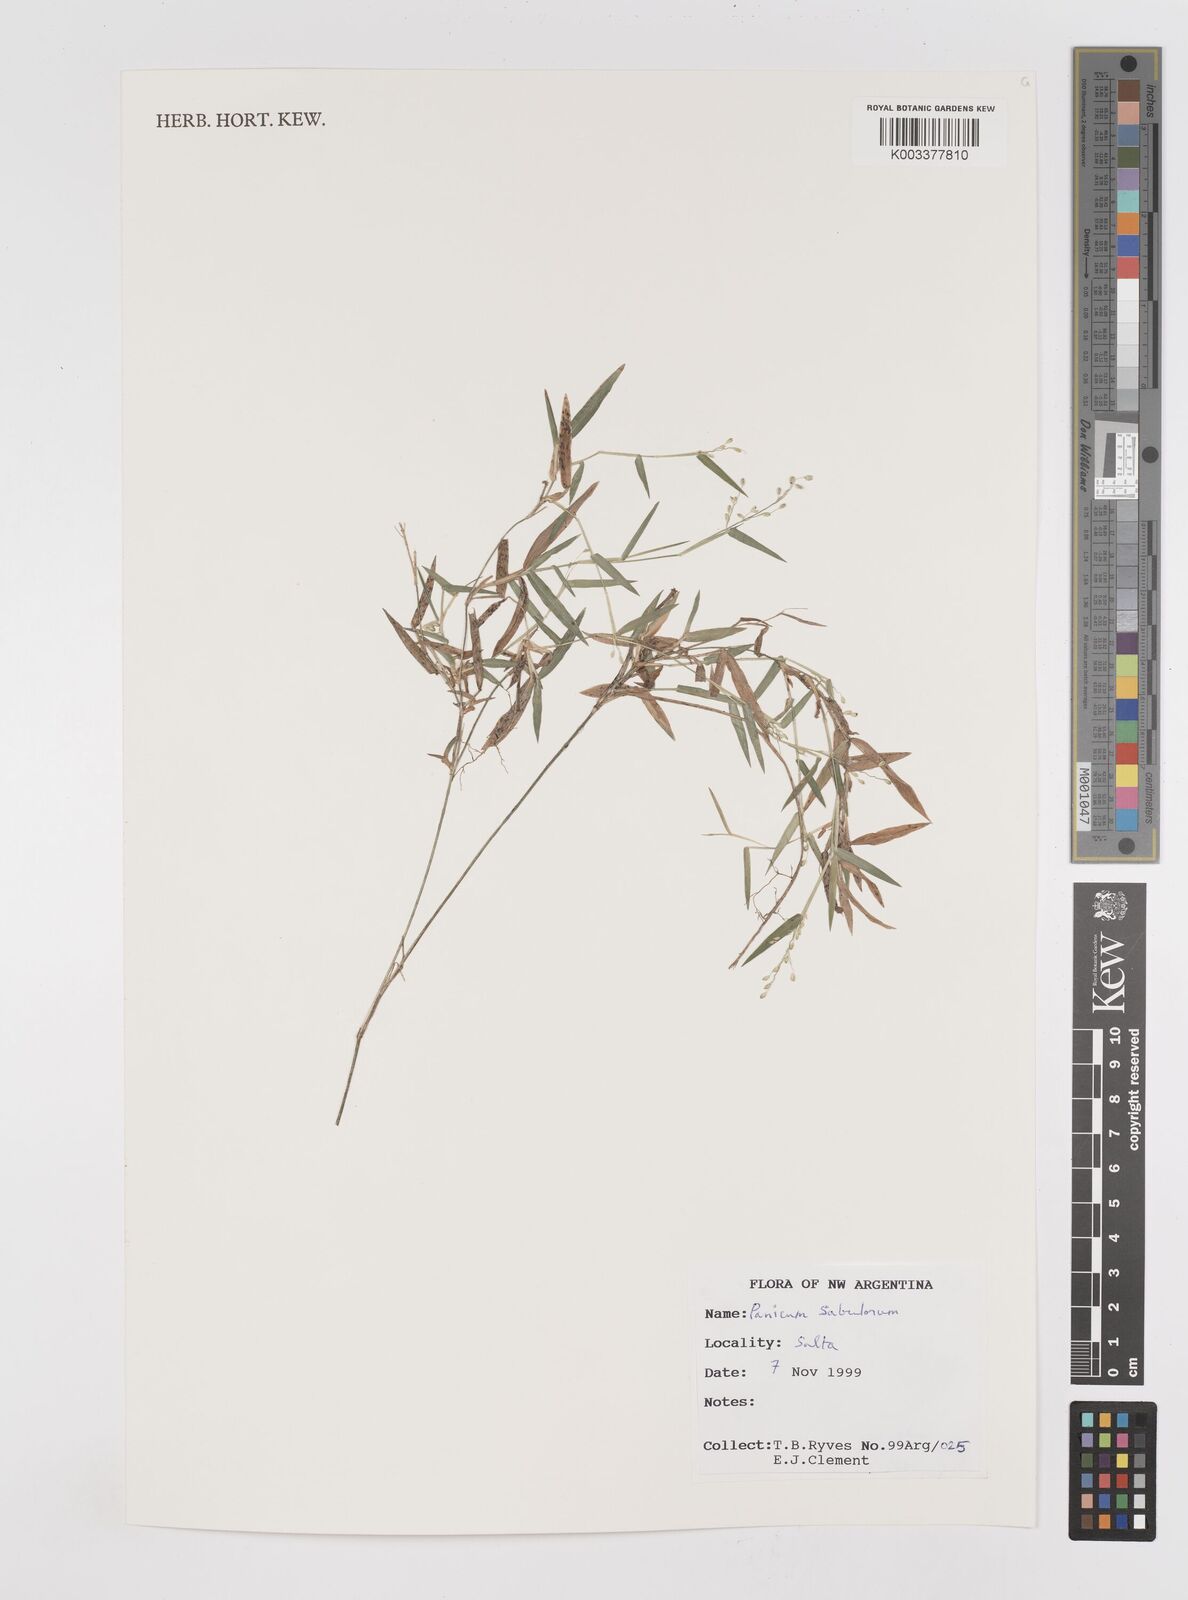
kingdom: Plantae
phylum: Tracheophyta
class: Liliopsida
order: Poales
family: Poaceae
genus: Dichanthelium
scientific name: Dichanthelium sabulorum
